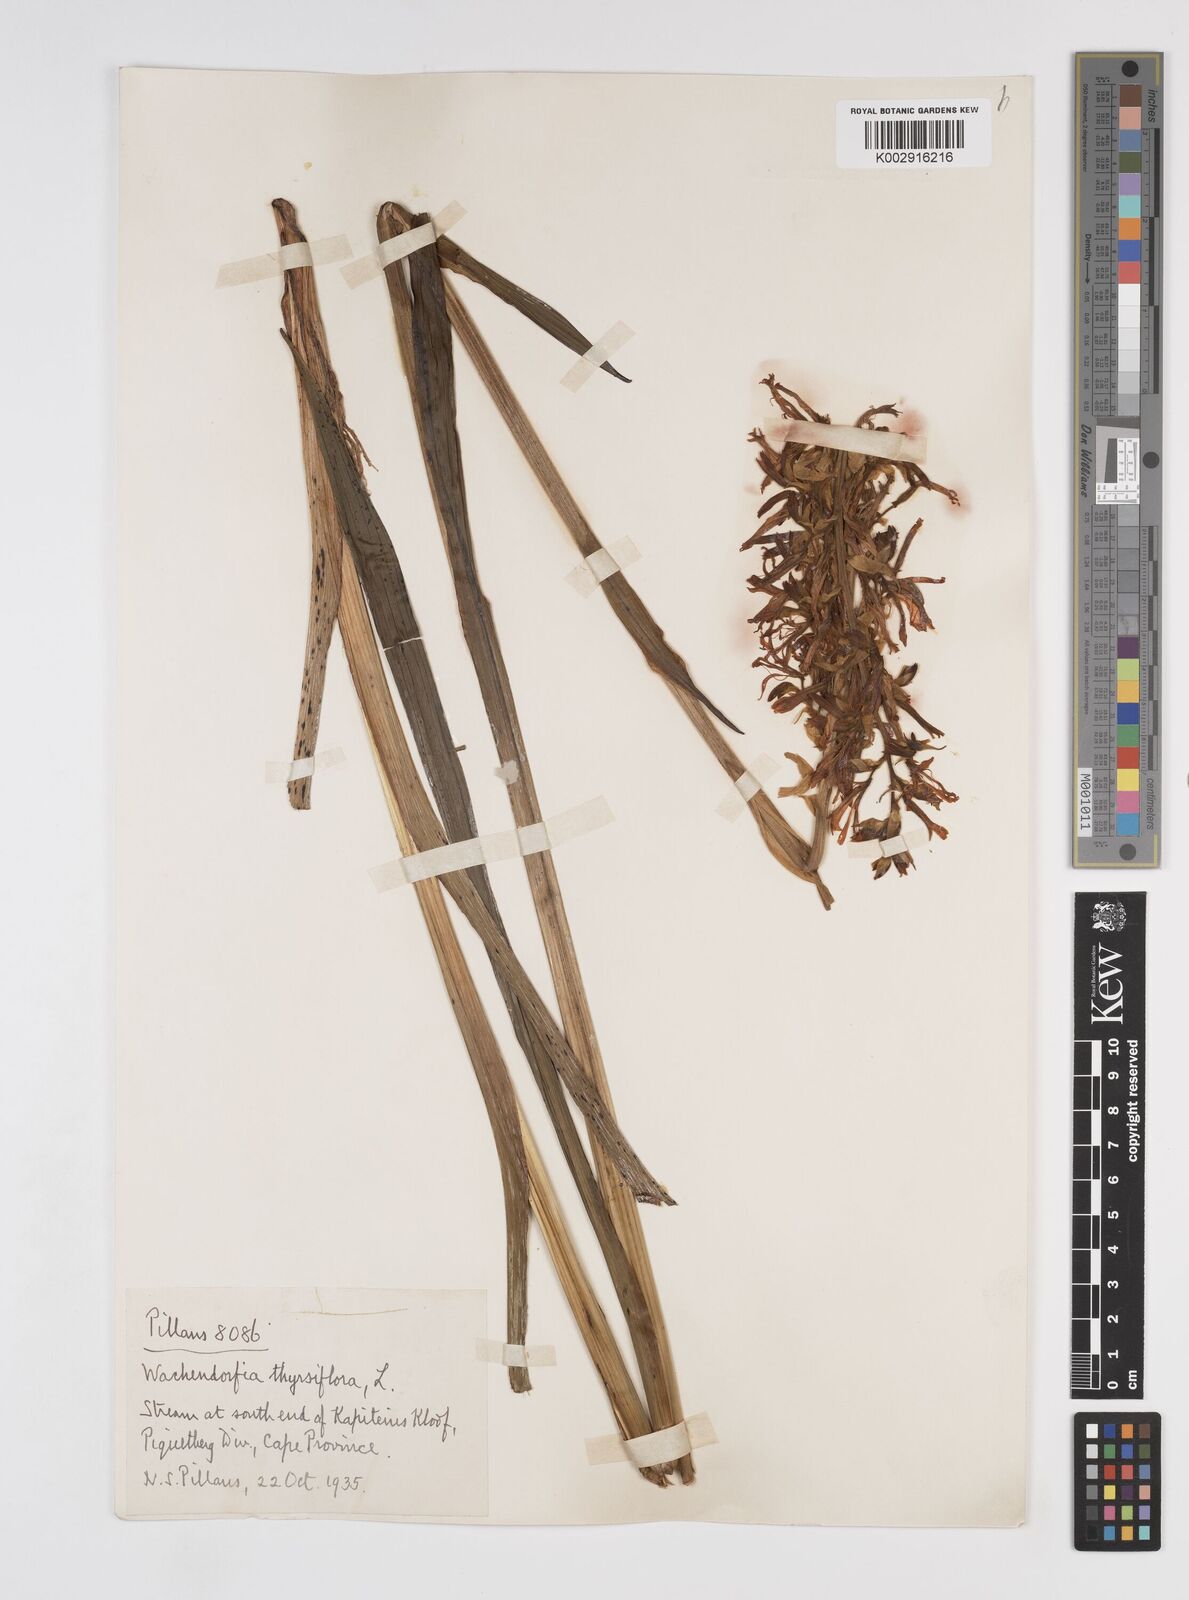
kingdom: Plantae
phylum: Tracheophyta
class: Liliopsida
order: Commelinales
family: Haemodoraceae
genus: Wachendorfia
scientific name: Wachendorfia thyrsiflora
